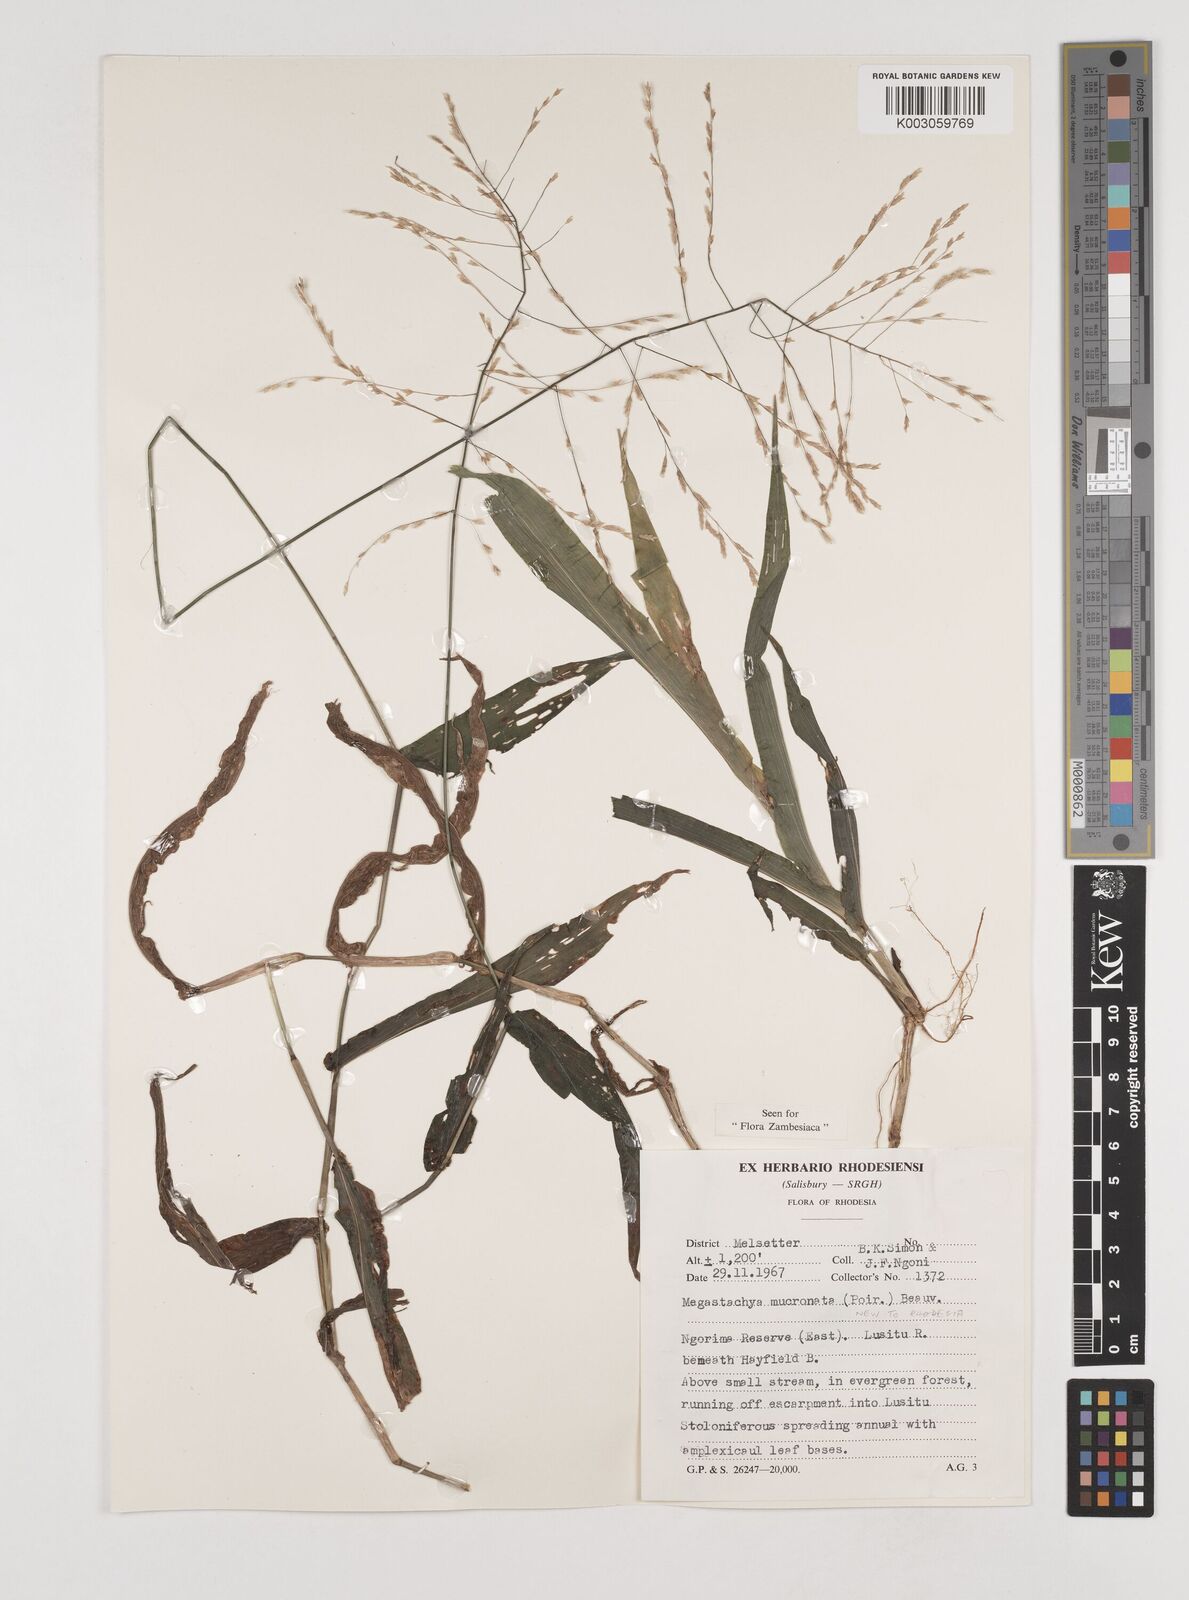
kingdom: Plantae
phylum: Tracheophyta
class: Liliopsida
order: Poales
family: Poaceae
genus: Megastachya
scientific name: Megastachya mucronata
